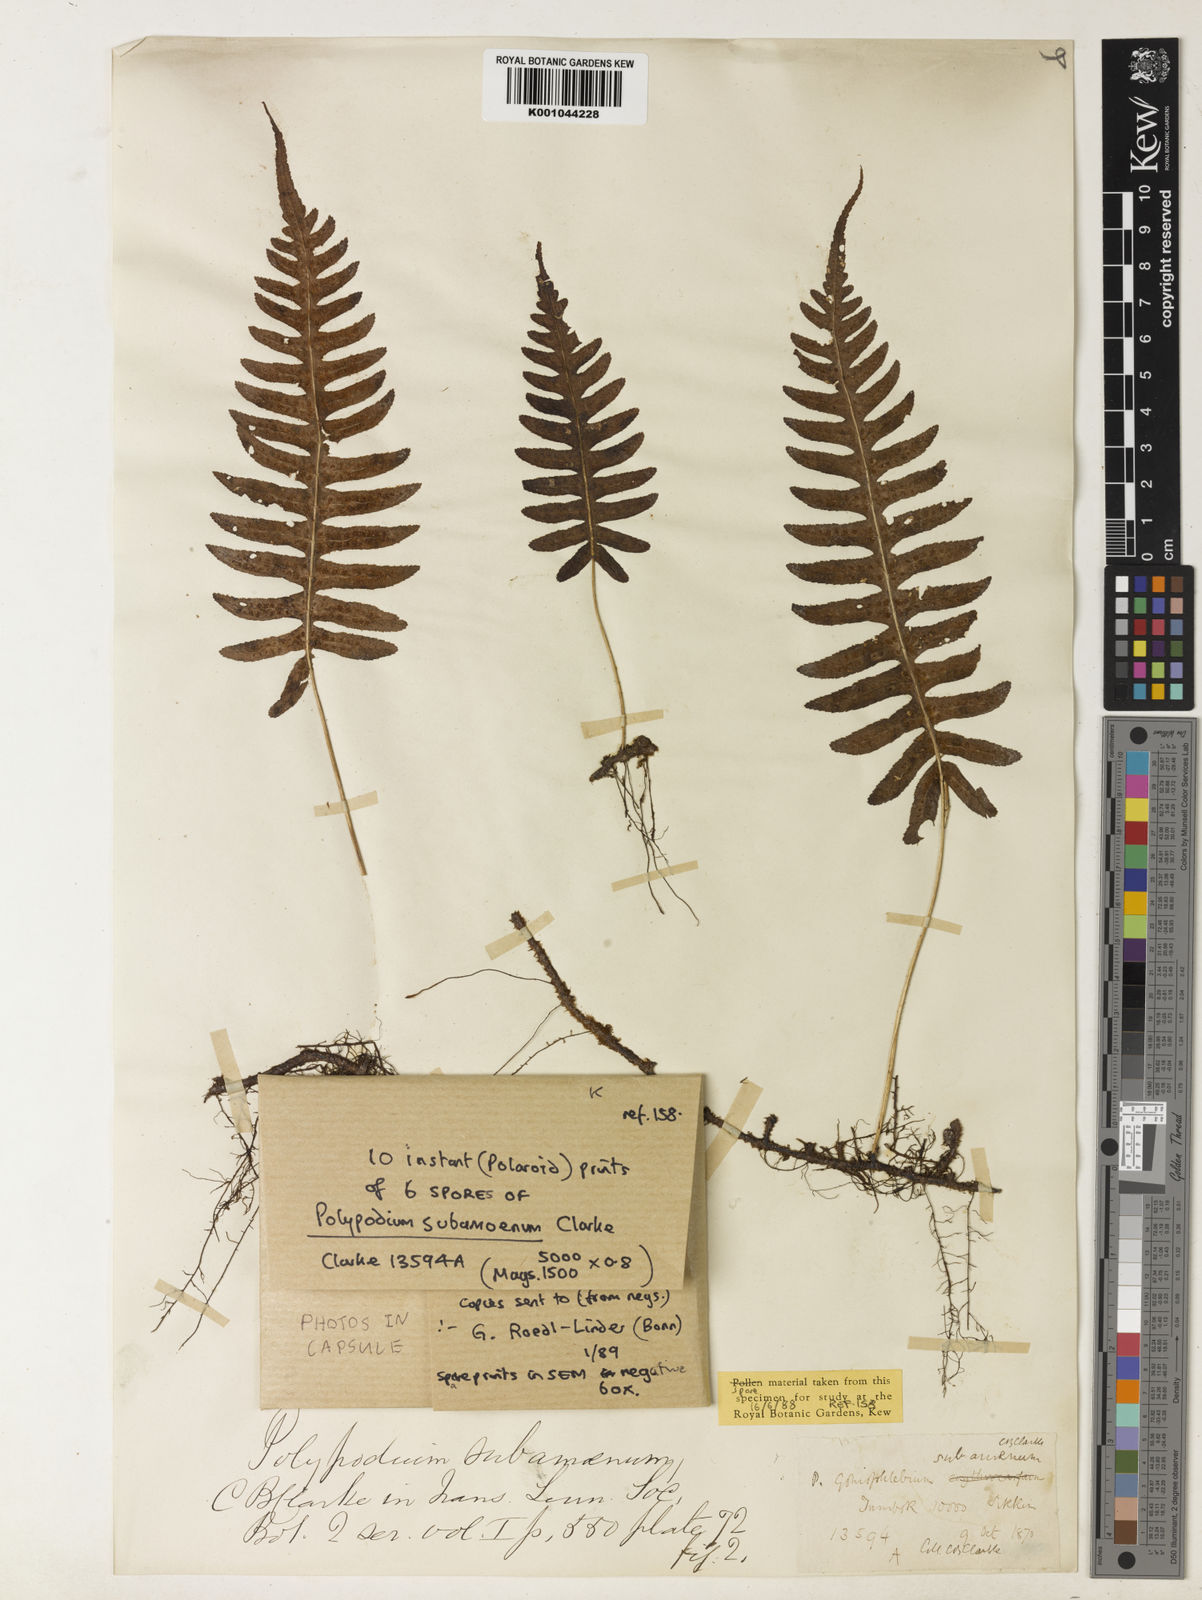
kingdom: Plantae
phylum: Tracheophyta
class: Polypodiopsida
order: Polypodiales
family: Polypodiaceae
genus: Goniophlebium
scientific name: Goniophlebium subamoenum
